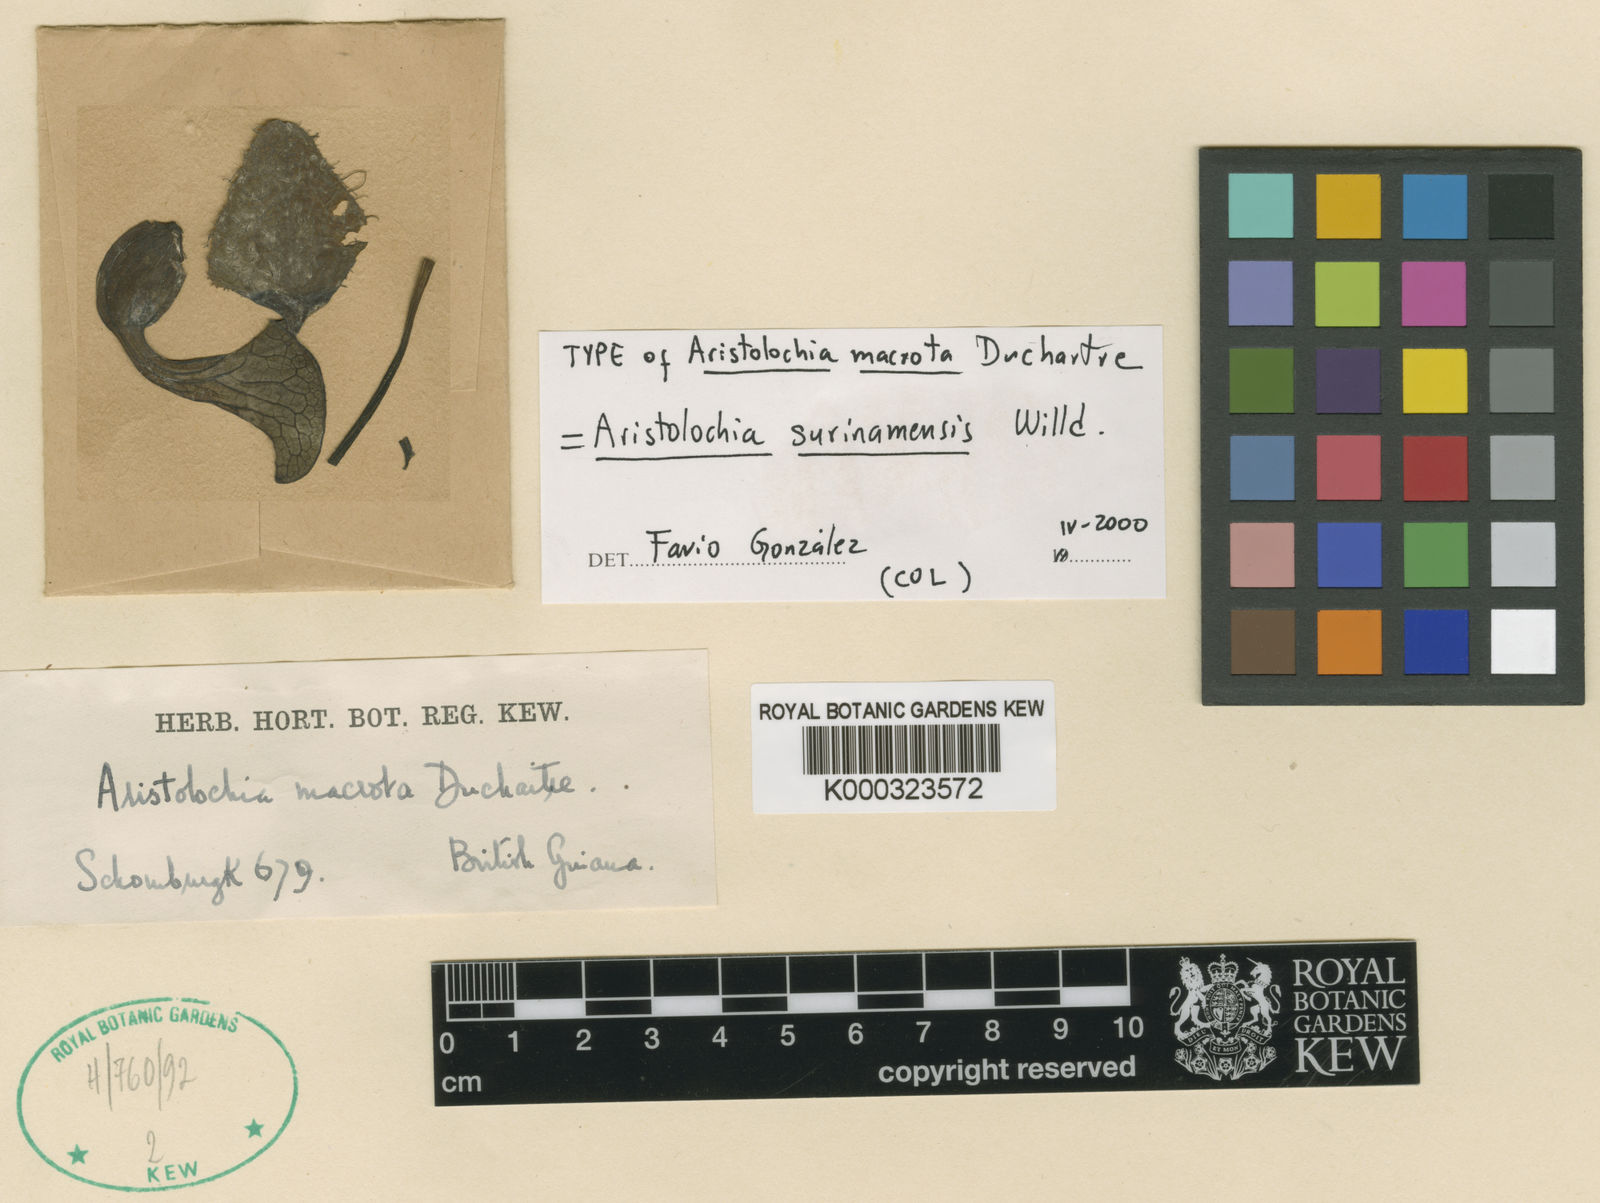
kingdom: Plantae
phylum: Tracheophyta
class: Magnoliopsida
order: Piperales
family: Aristolochiaceae
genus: Aristolochia
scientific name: Aristolochia
